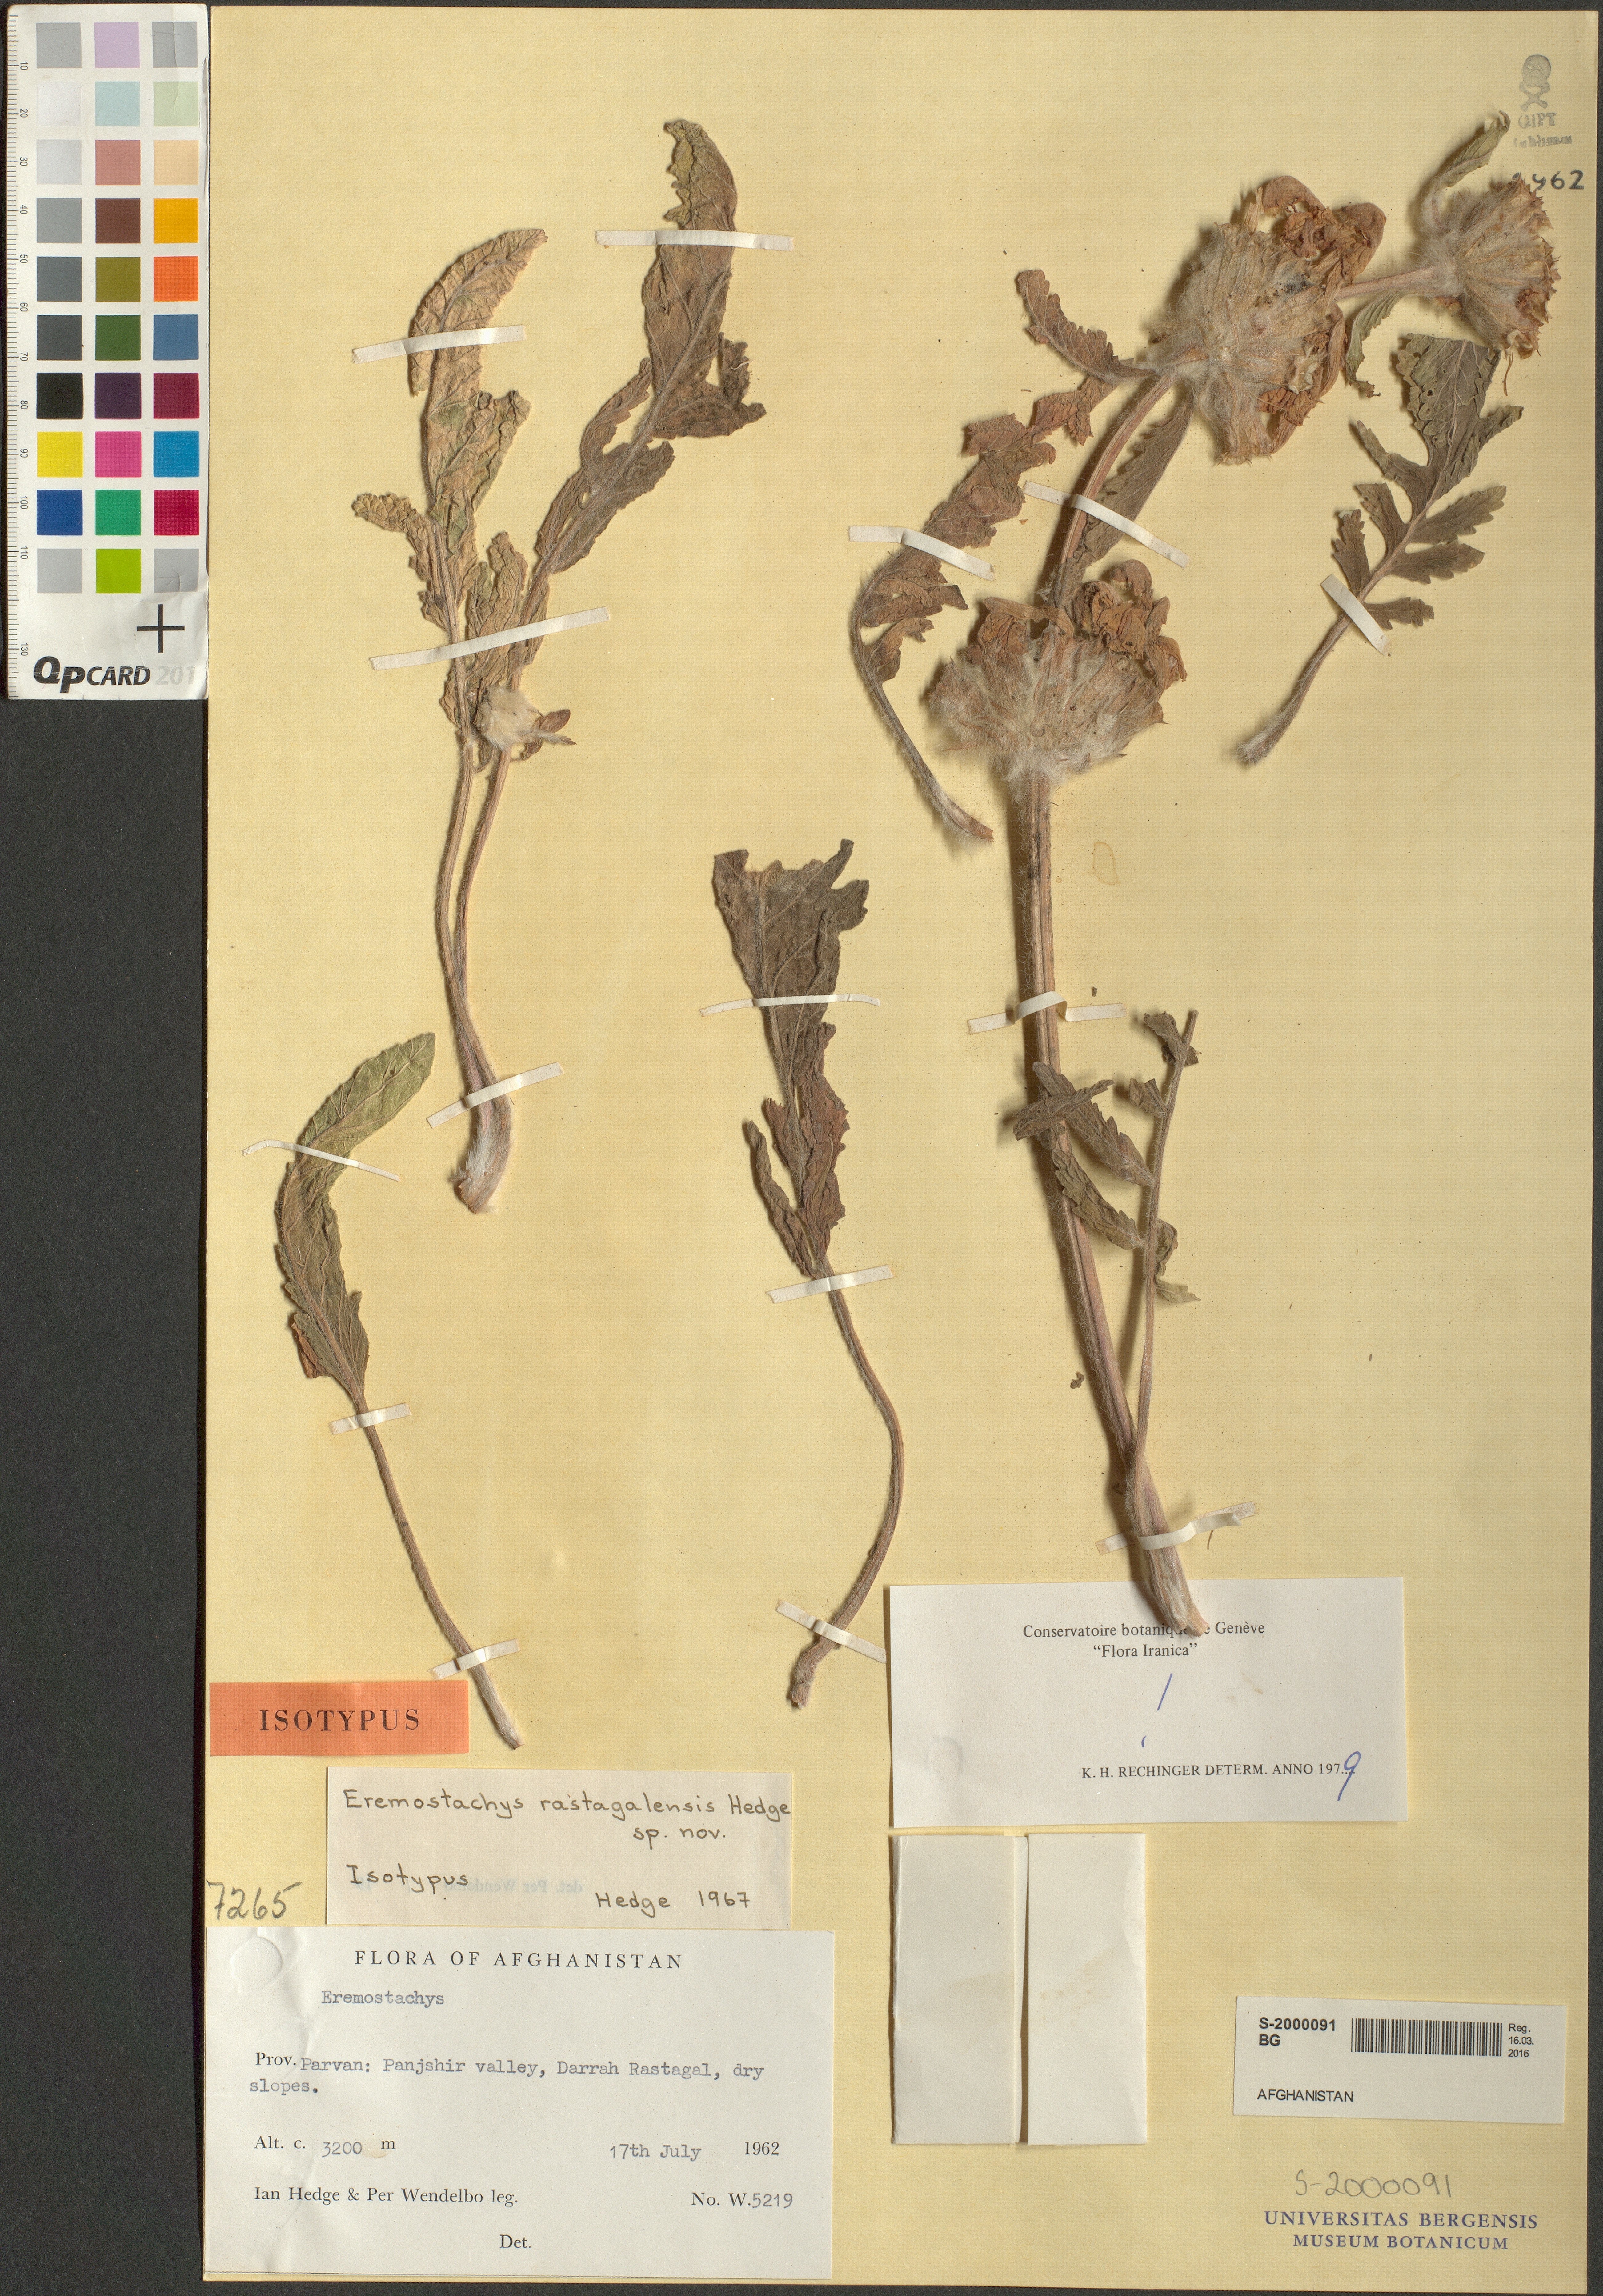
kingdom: Plantae
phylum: Tracheophyta
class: Magnoliopsida
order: Lamiales
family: Lamiaceae
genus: Phlomoides
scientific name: Phlomoides rastagalensis
